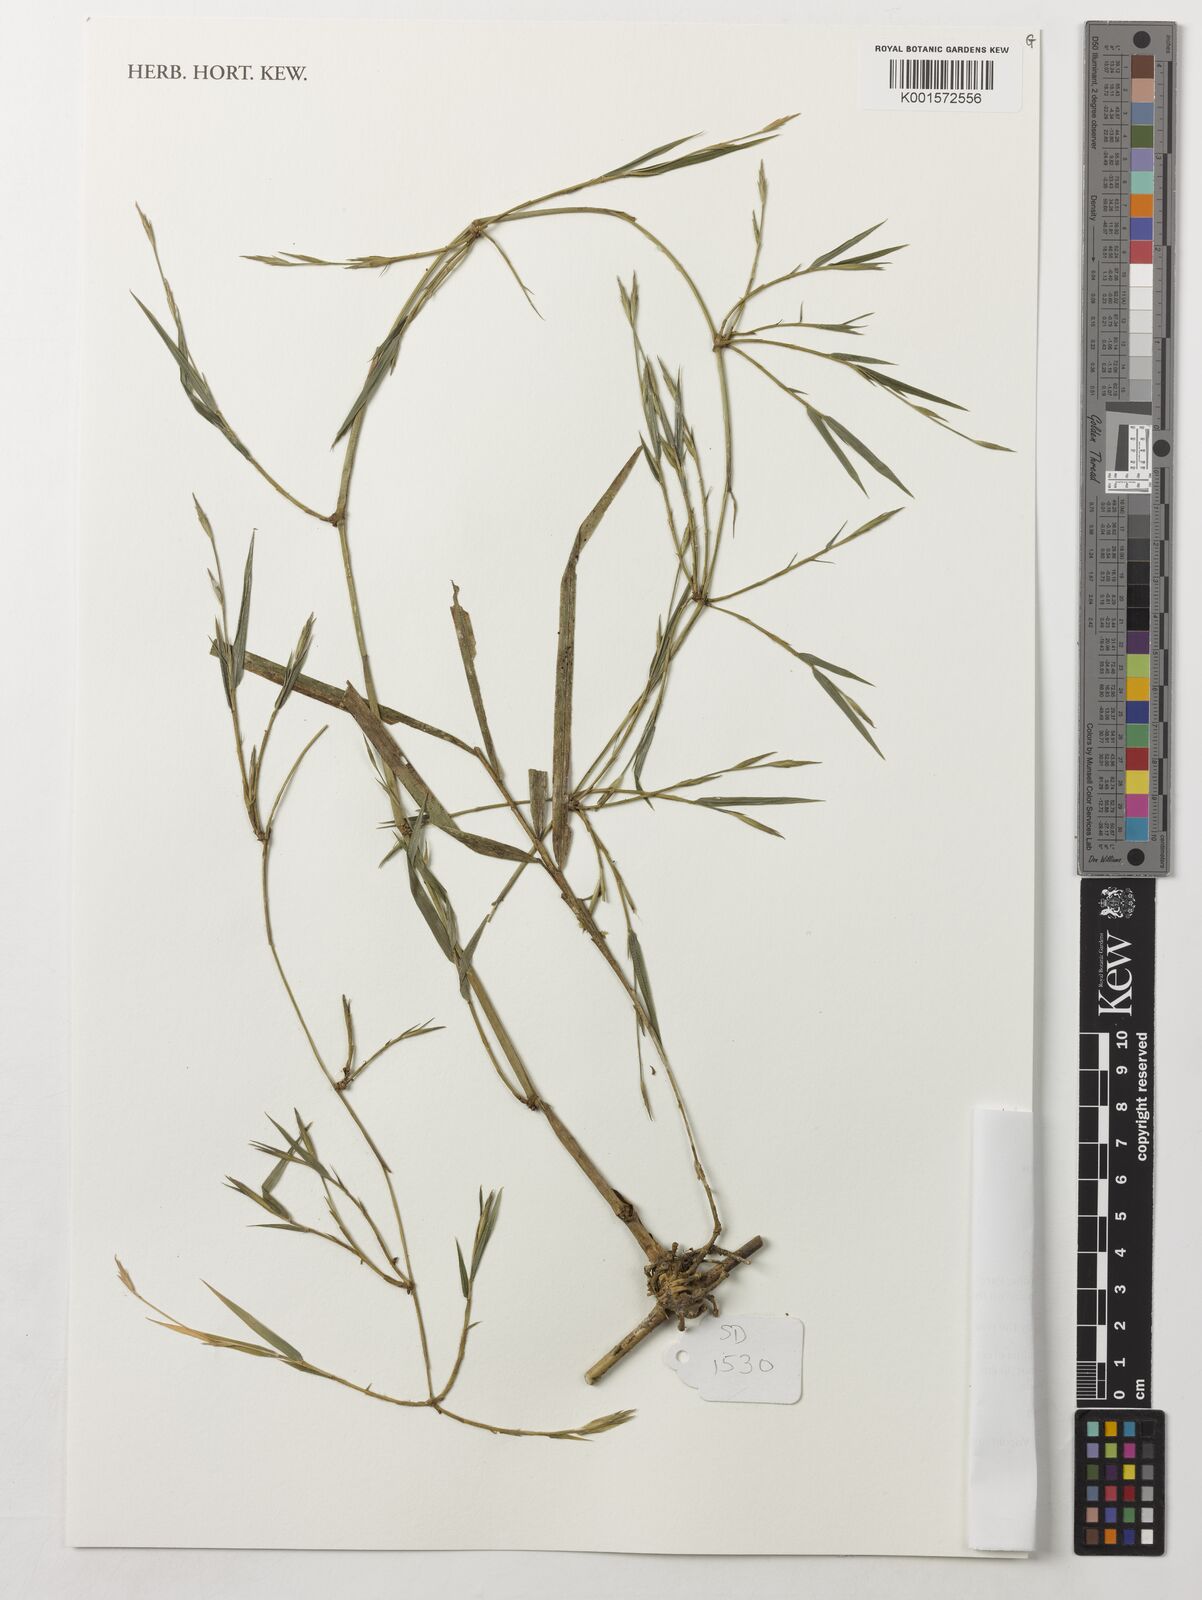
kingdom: Plantae
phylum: Tracheophyta
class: Liliopsida
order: Poales
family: Poaceae
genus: Nastus
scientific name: Nastus elongatus
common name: Spider bamboo
